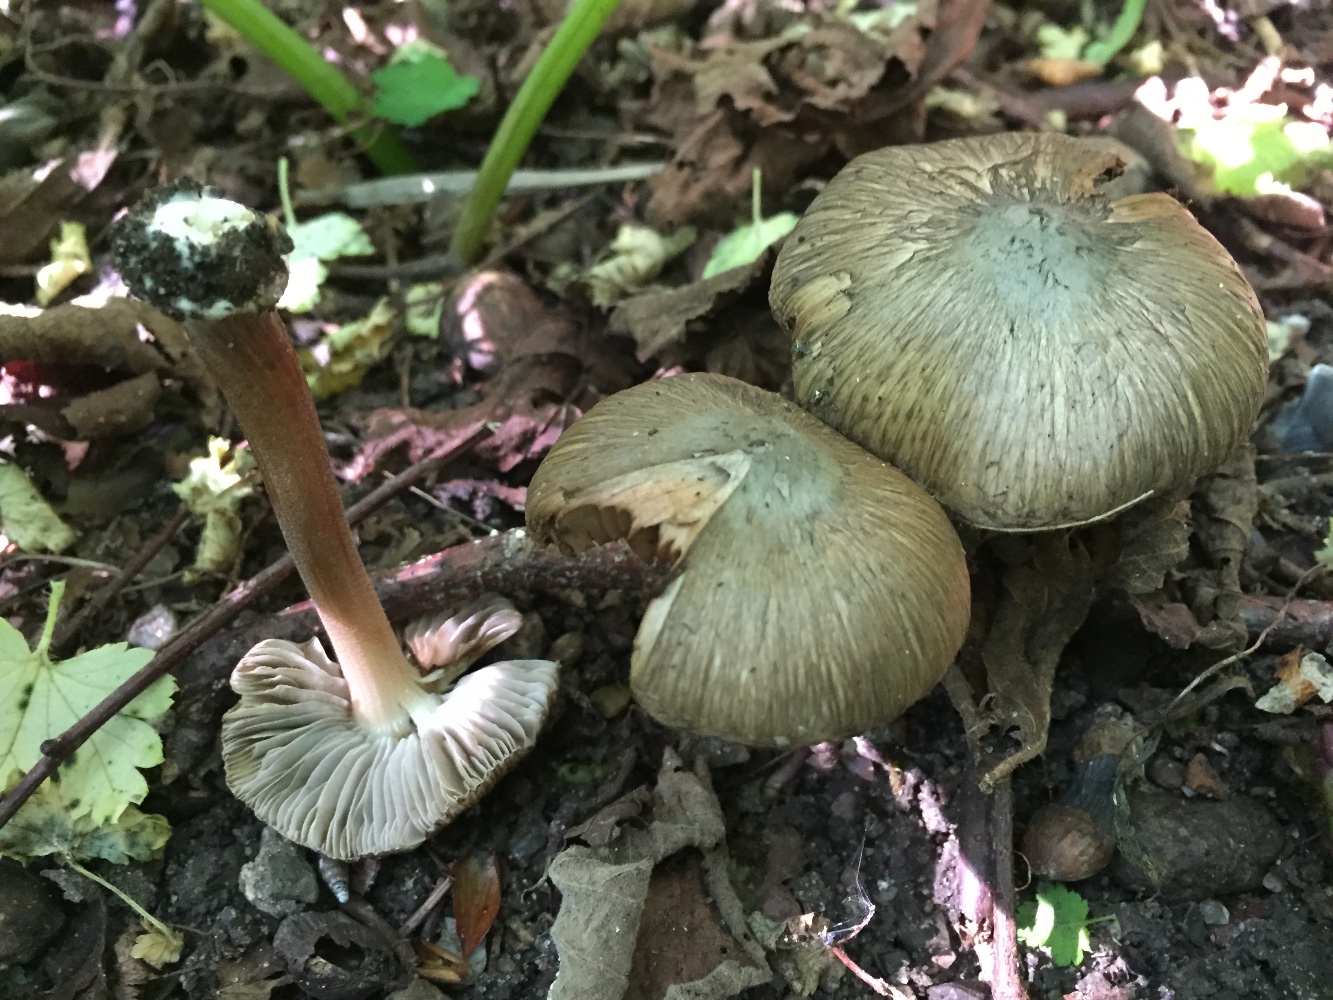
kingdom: Fungi
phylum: Basidiomycota
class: Agaricomycetes
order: Agaricales
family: Inocybaceae
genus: Inocybe
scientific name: Inocybe asterospora
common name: stjernesporet trævlhat
